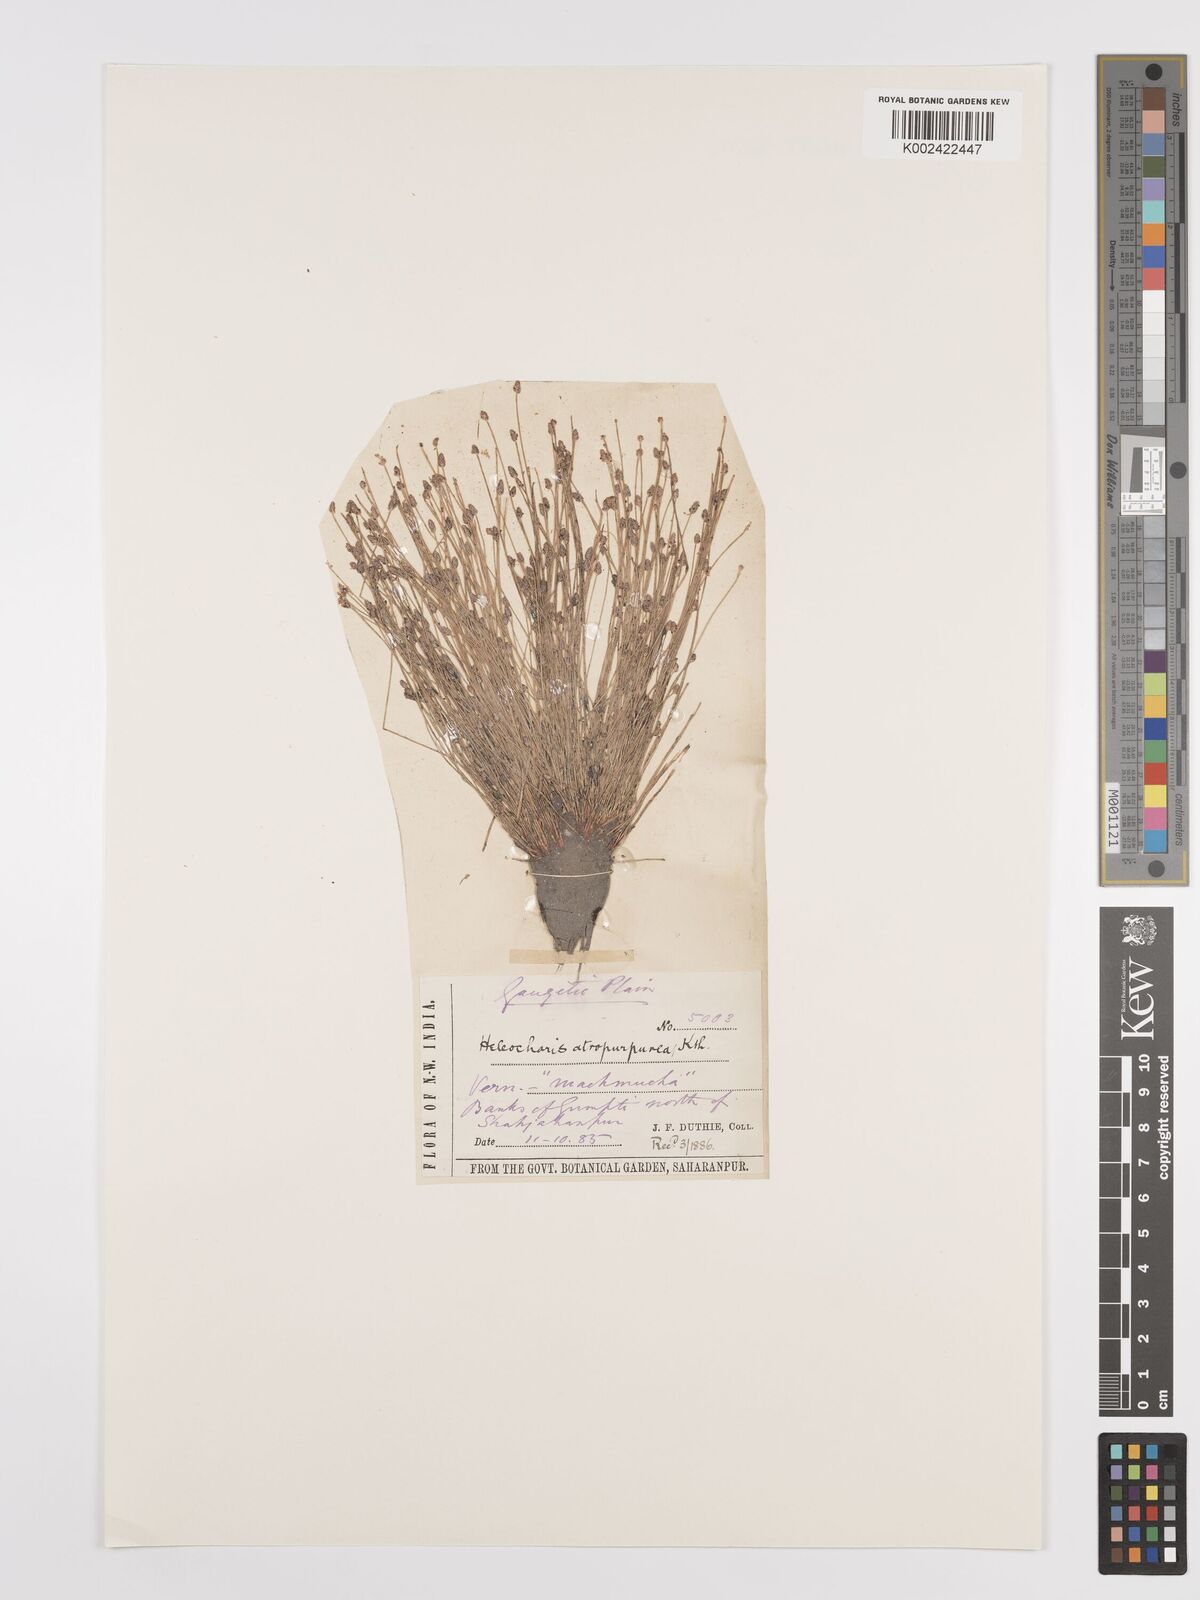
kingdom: Plantae
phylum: Tracheophyta
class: Liliopsida
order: Poales
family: Cyperaceae
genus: Eleocharis
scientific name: Eleocharis atropurpurea
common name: Purple spikerush
